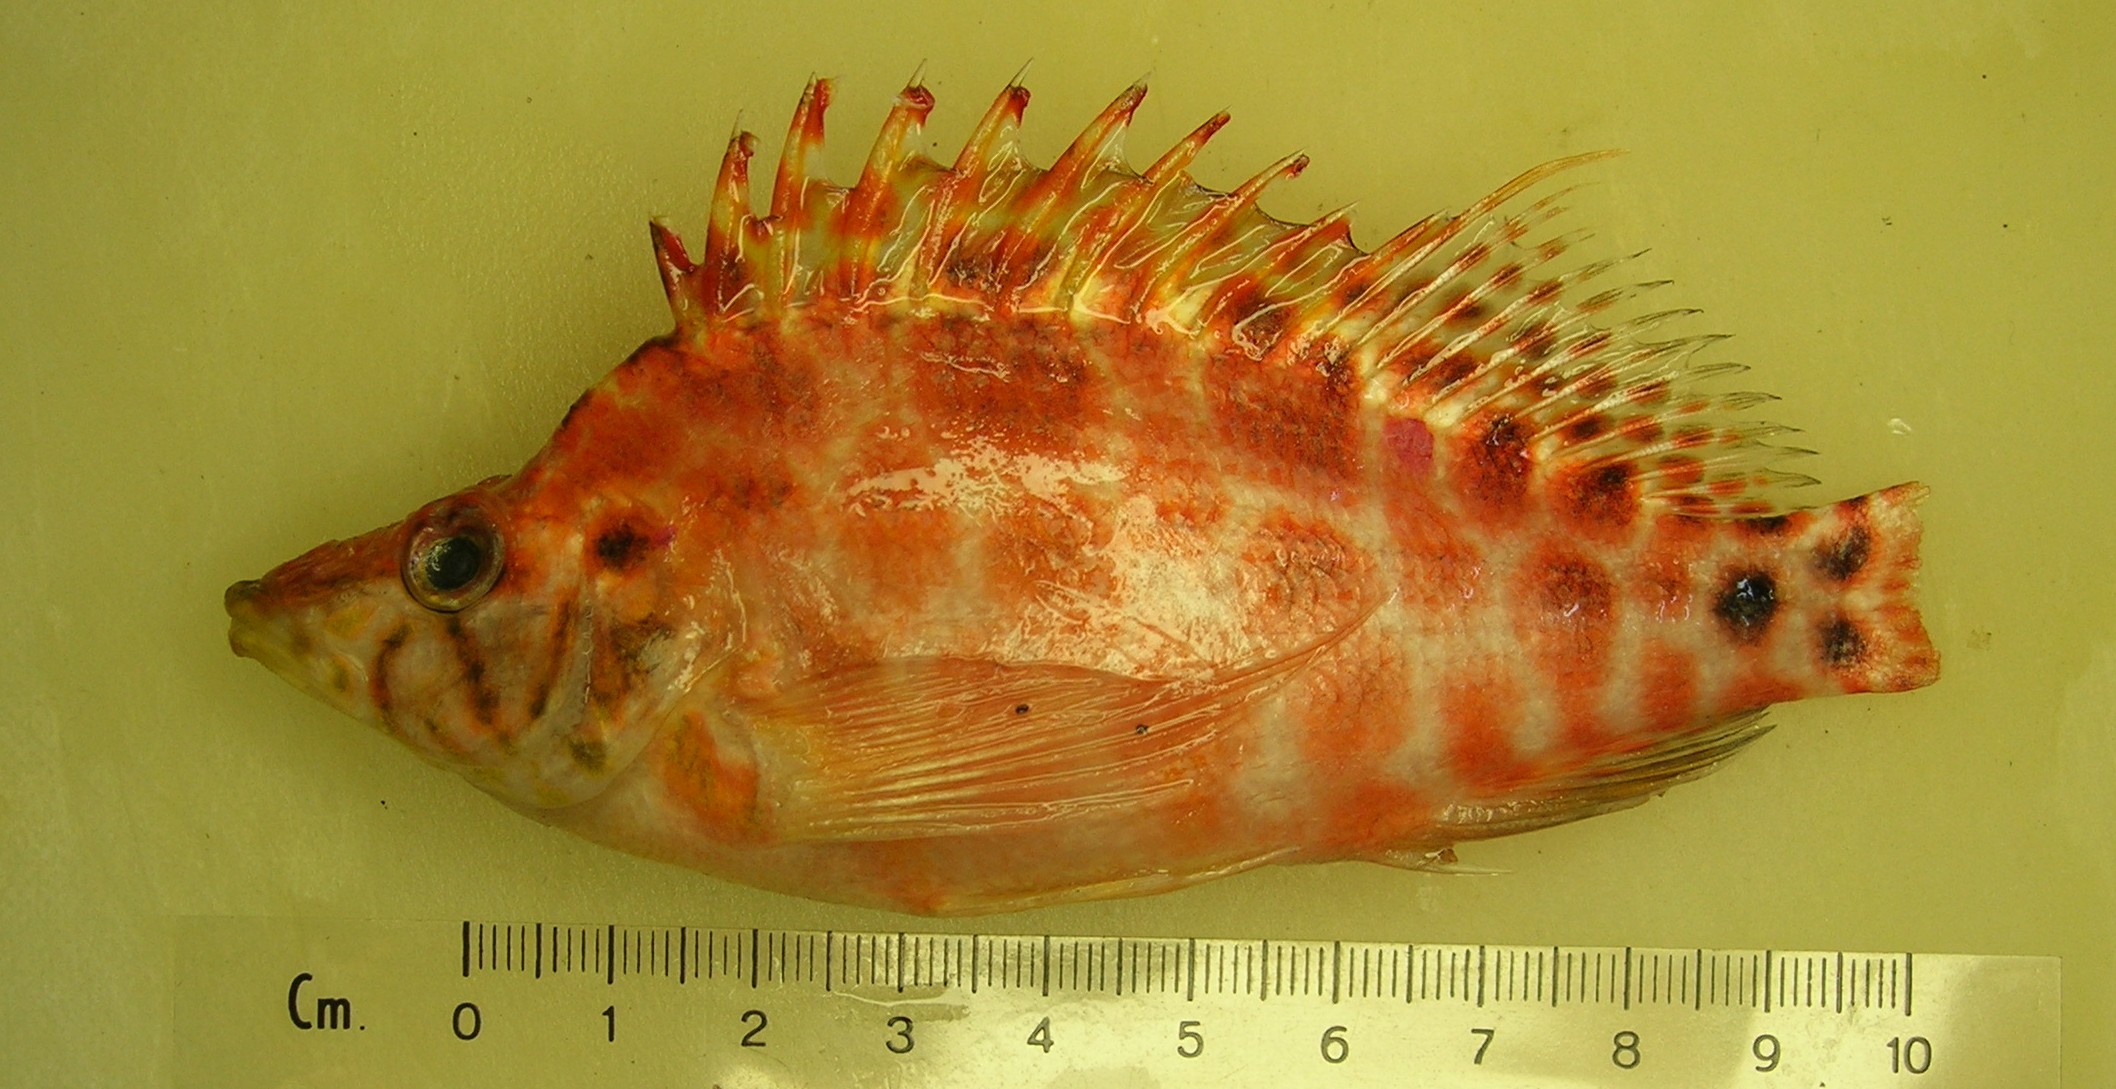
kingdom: Animalia
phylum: Chordata
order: Perciformes
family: Cirrhitidae
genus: Cirrhitichthys
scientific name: Cirrhitichthys guichenoti
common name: Cave hawkfish
